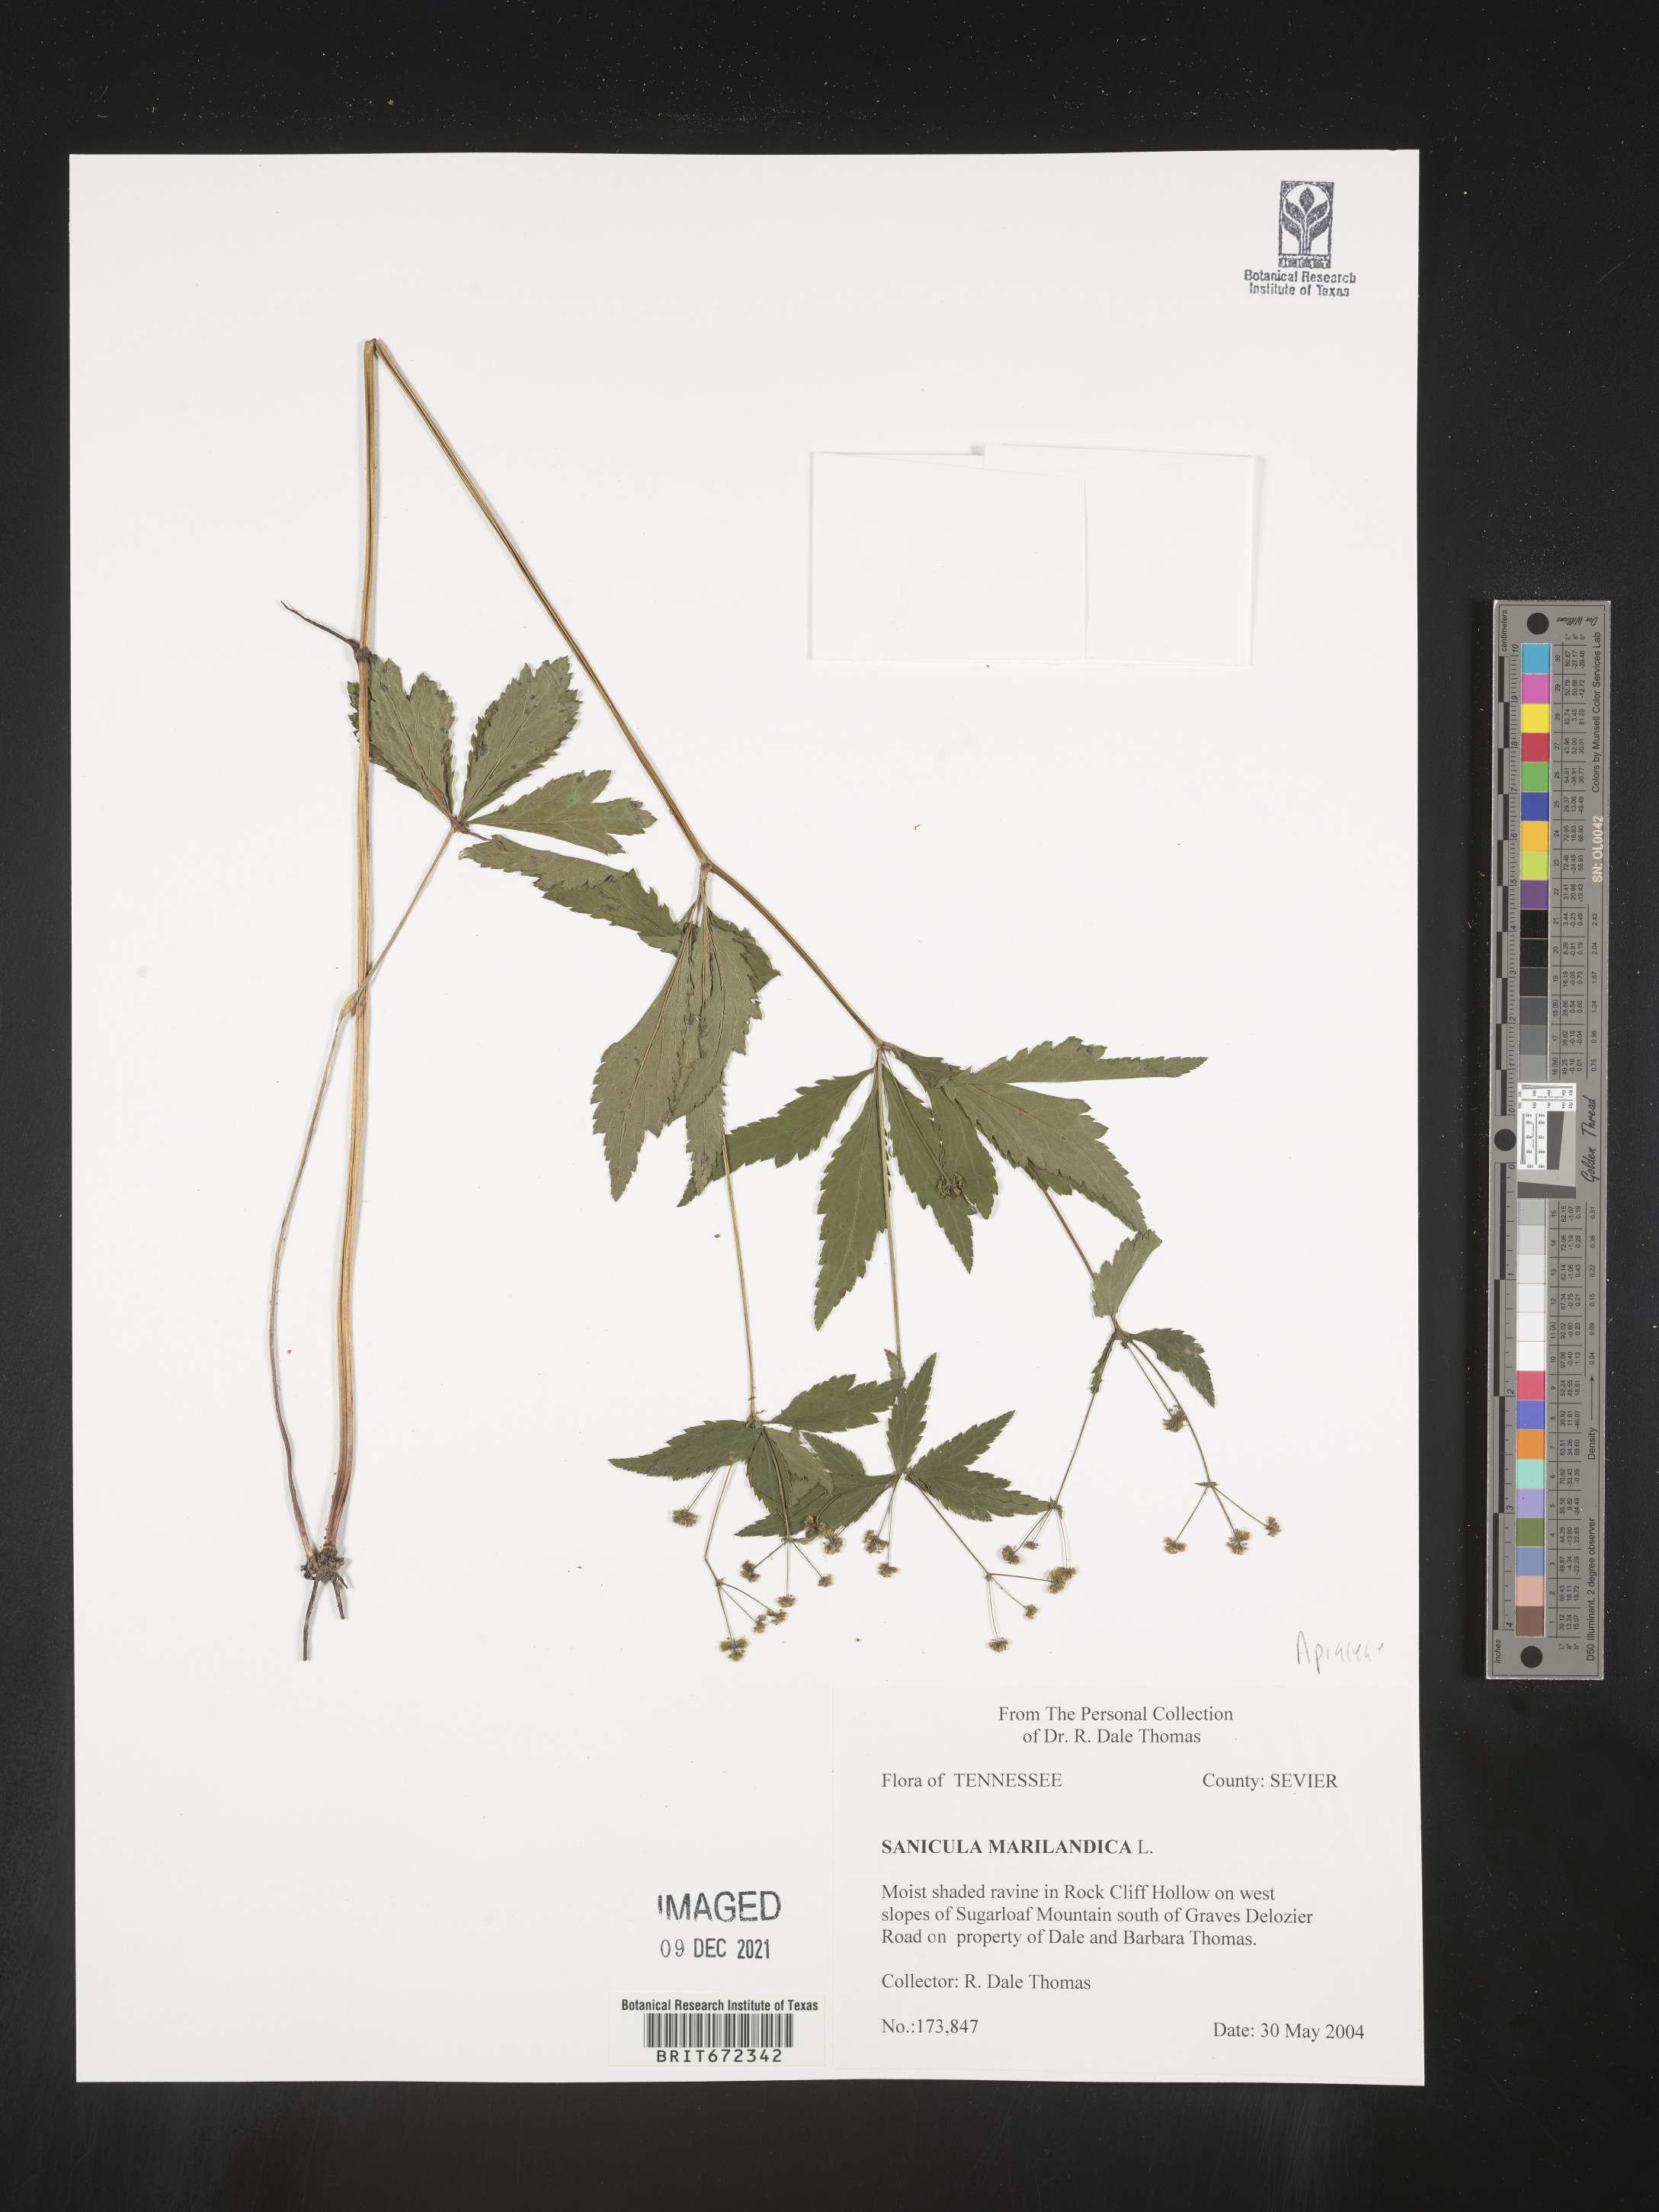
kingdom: Plantae
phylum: Tracheophyta
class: Magnoliopsida
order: Apiales
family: Apiaceae
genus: Sanicula
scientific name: Sanicula marilandica
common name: Black snakeroot
